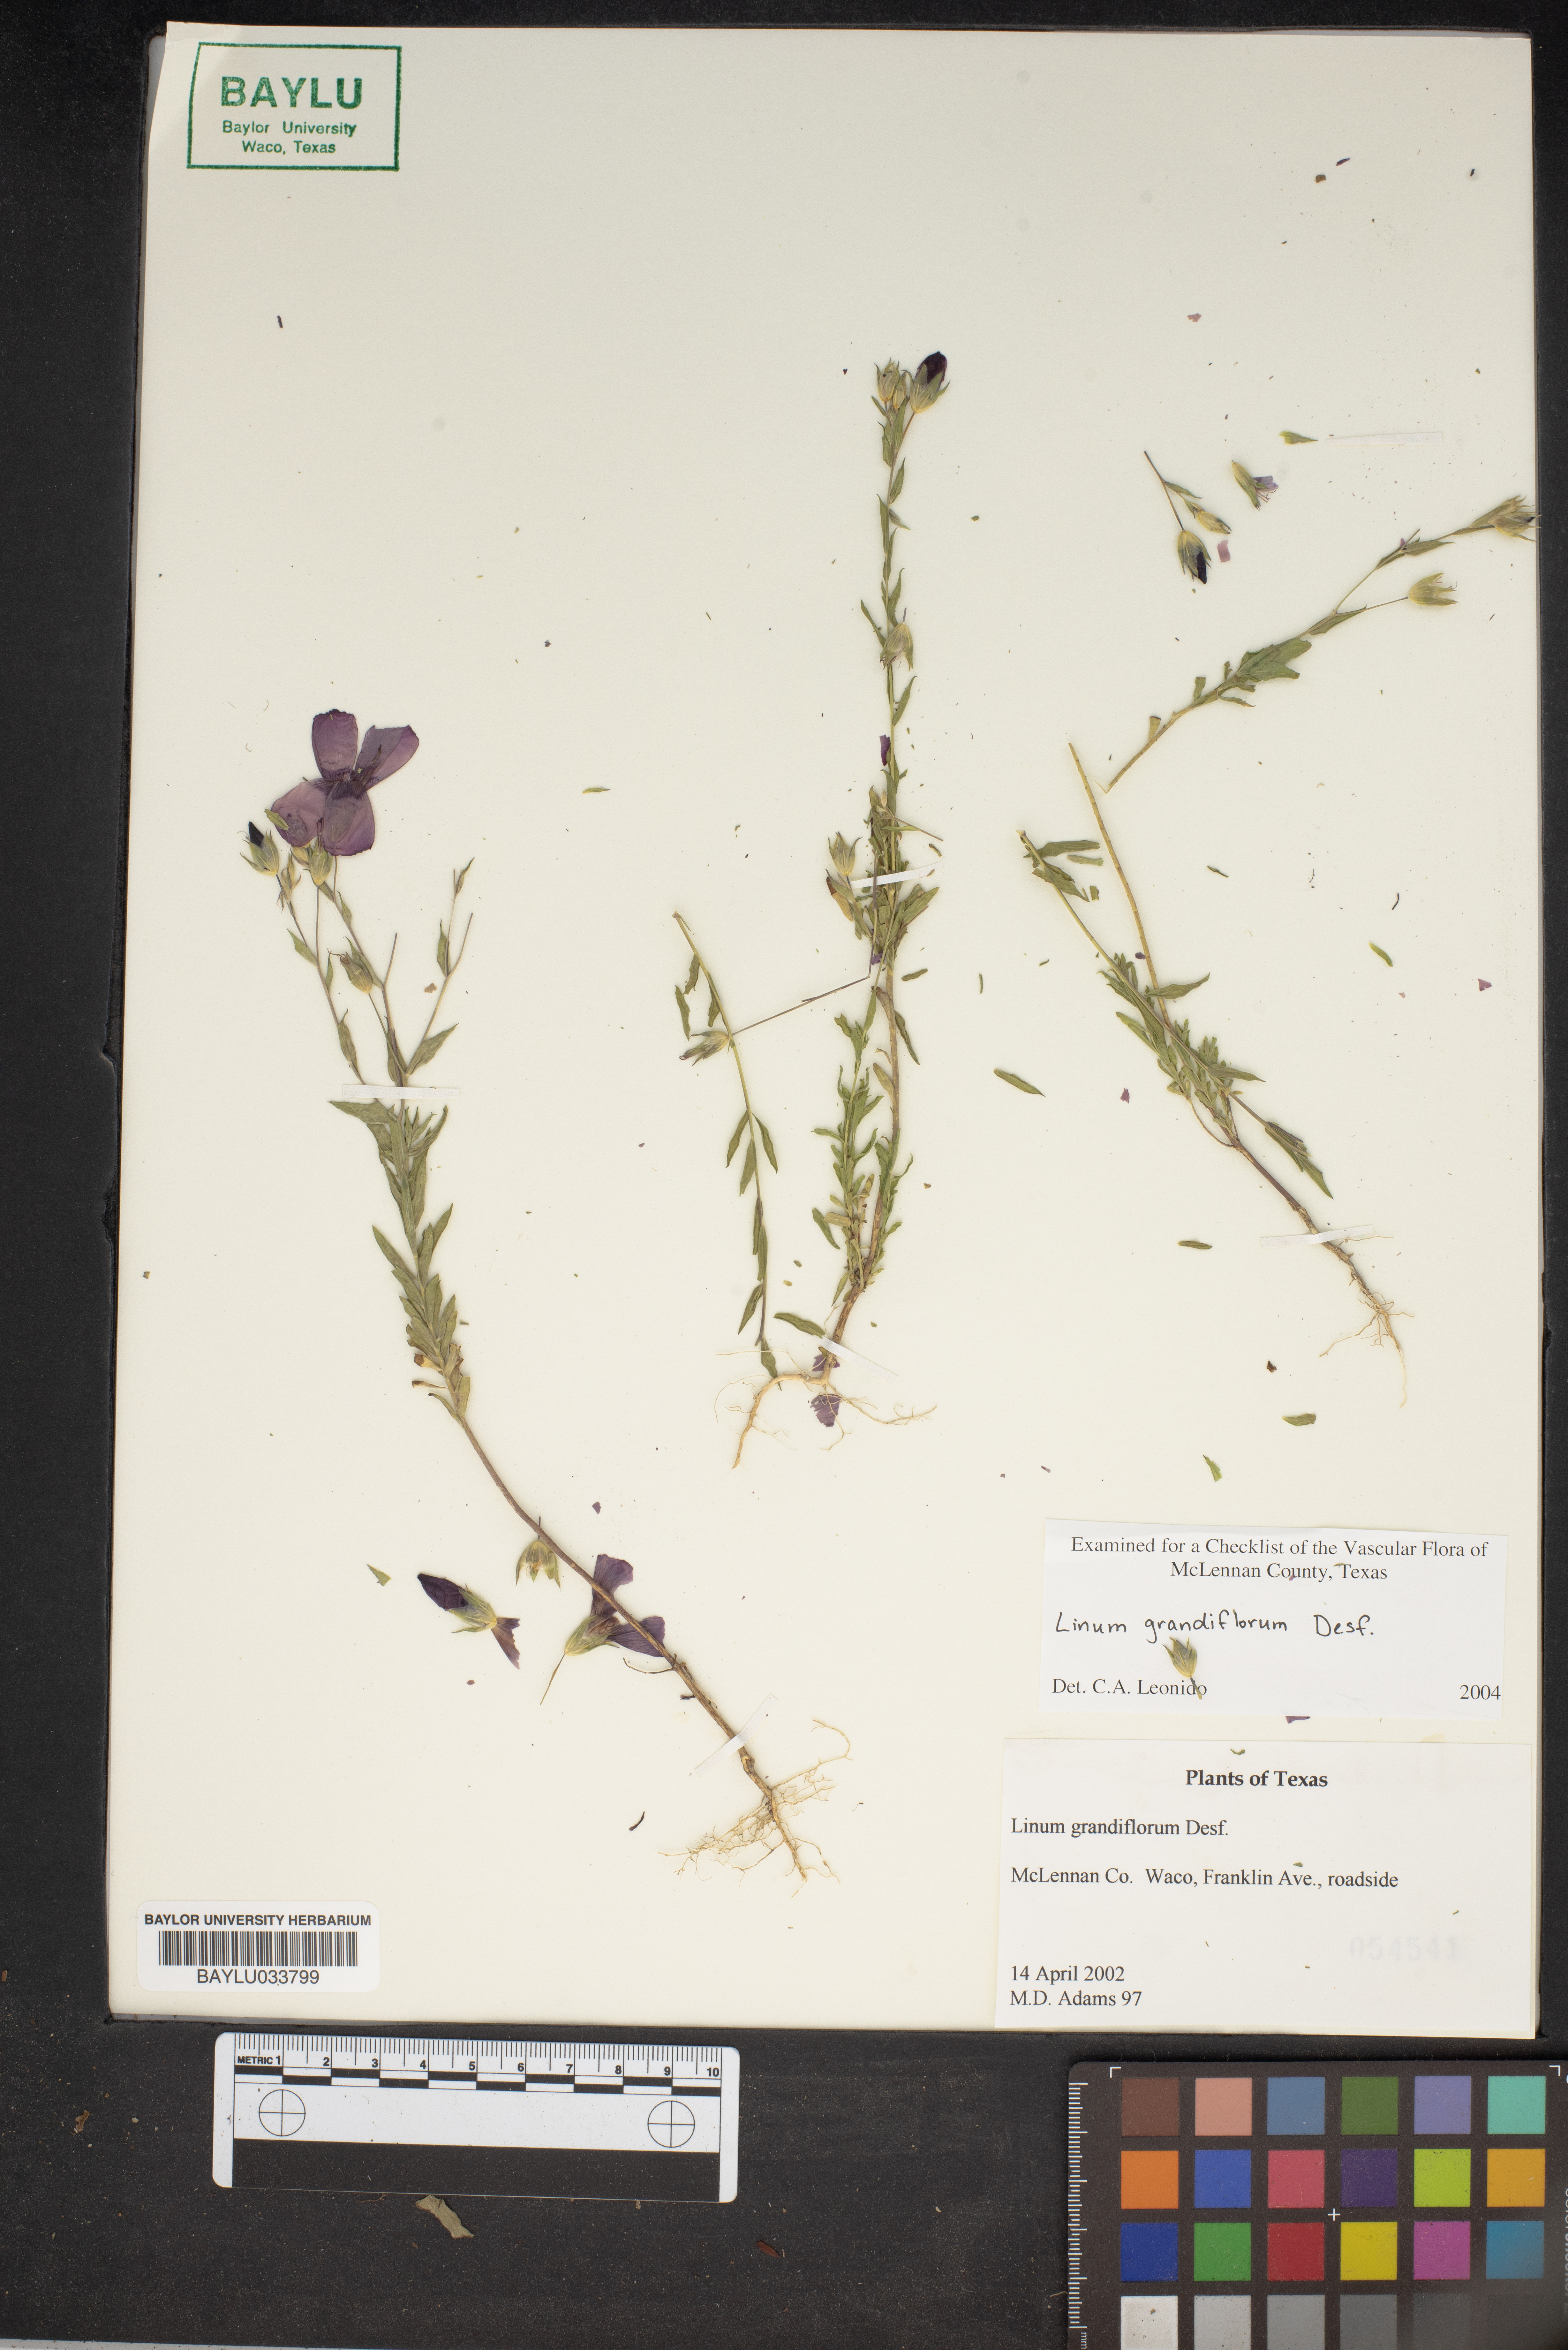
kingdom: Plantae
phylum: Tracheophyta
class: Magnoliopsida
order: Malpighiales
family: Linaceae
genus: Linum
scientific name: Linum grandiflorum
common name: Crimson flax
